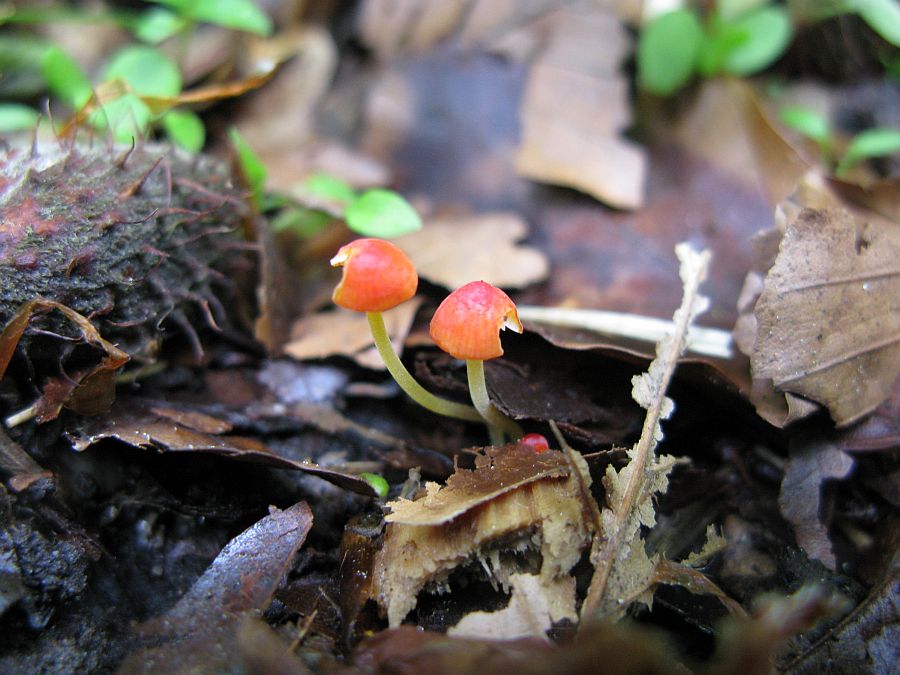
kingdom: Fungi
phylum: Basidiomycota
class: Agaricomycetes
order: Agaricales
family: Mycenaceae
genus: Mycena
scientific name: Mycena acicula
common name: orange huesvamp
